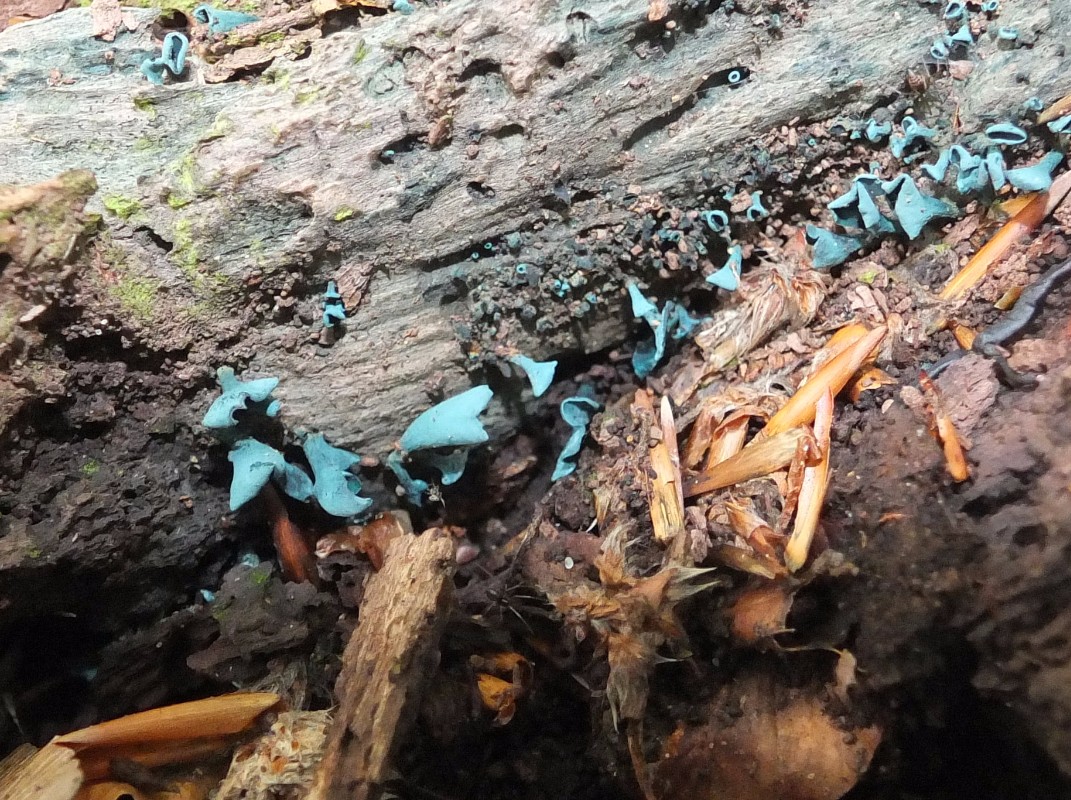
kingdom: Fungi
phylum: Ascomycota
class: Leotiomycetes
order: Helotiales
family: Chlorociboriaceae
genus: Chlorociboria
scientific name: Chlorociboria aeruginascens
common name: almindelig grønskive
